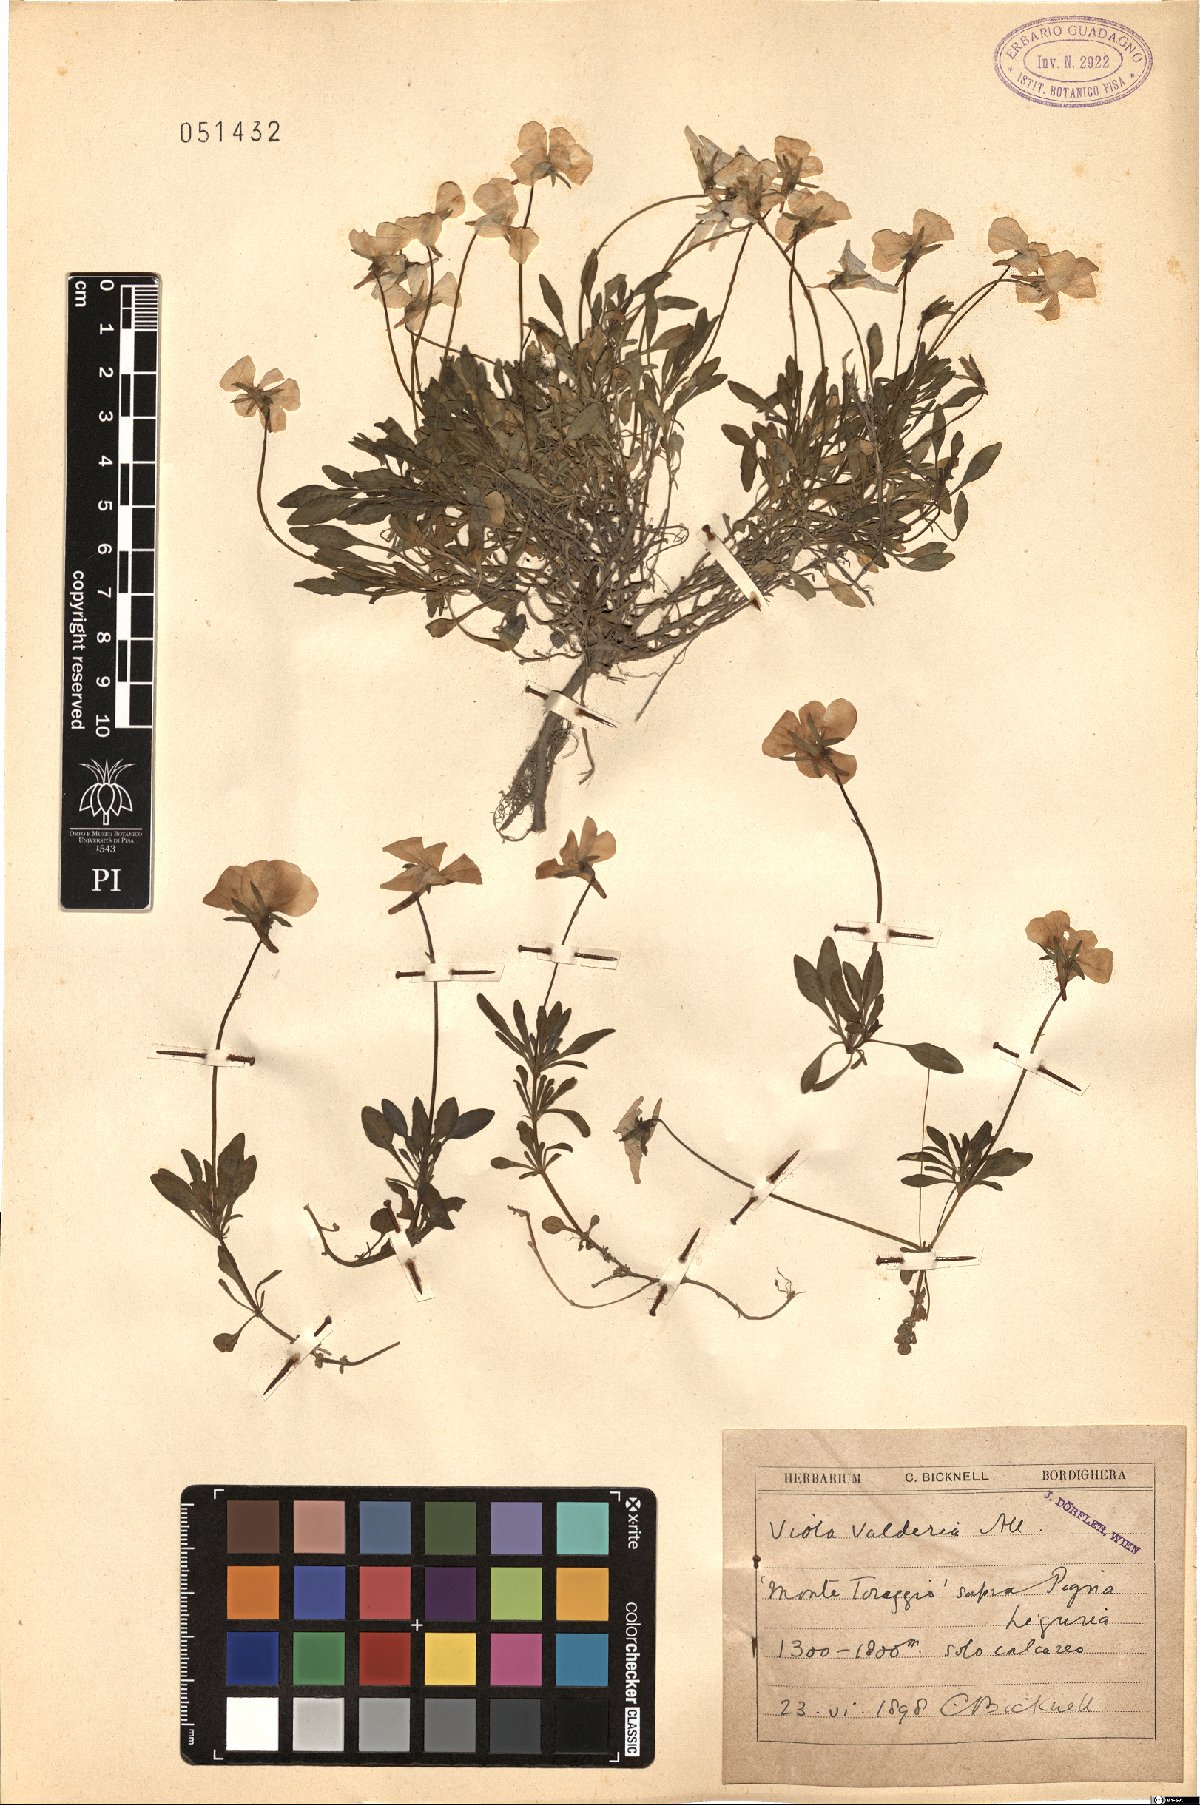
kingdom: Plantae
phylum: Tracheophyta
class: Magnoliopsida
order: Malpighiales
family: Violaceae
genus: Viola
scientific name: Viola valderia
